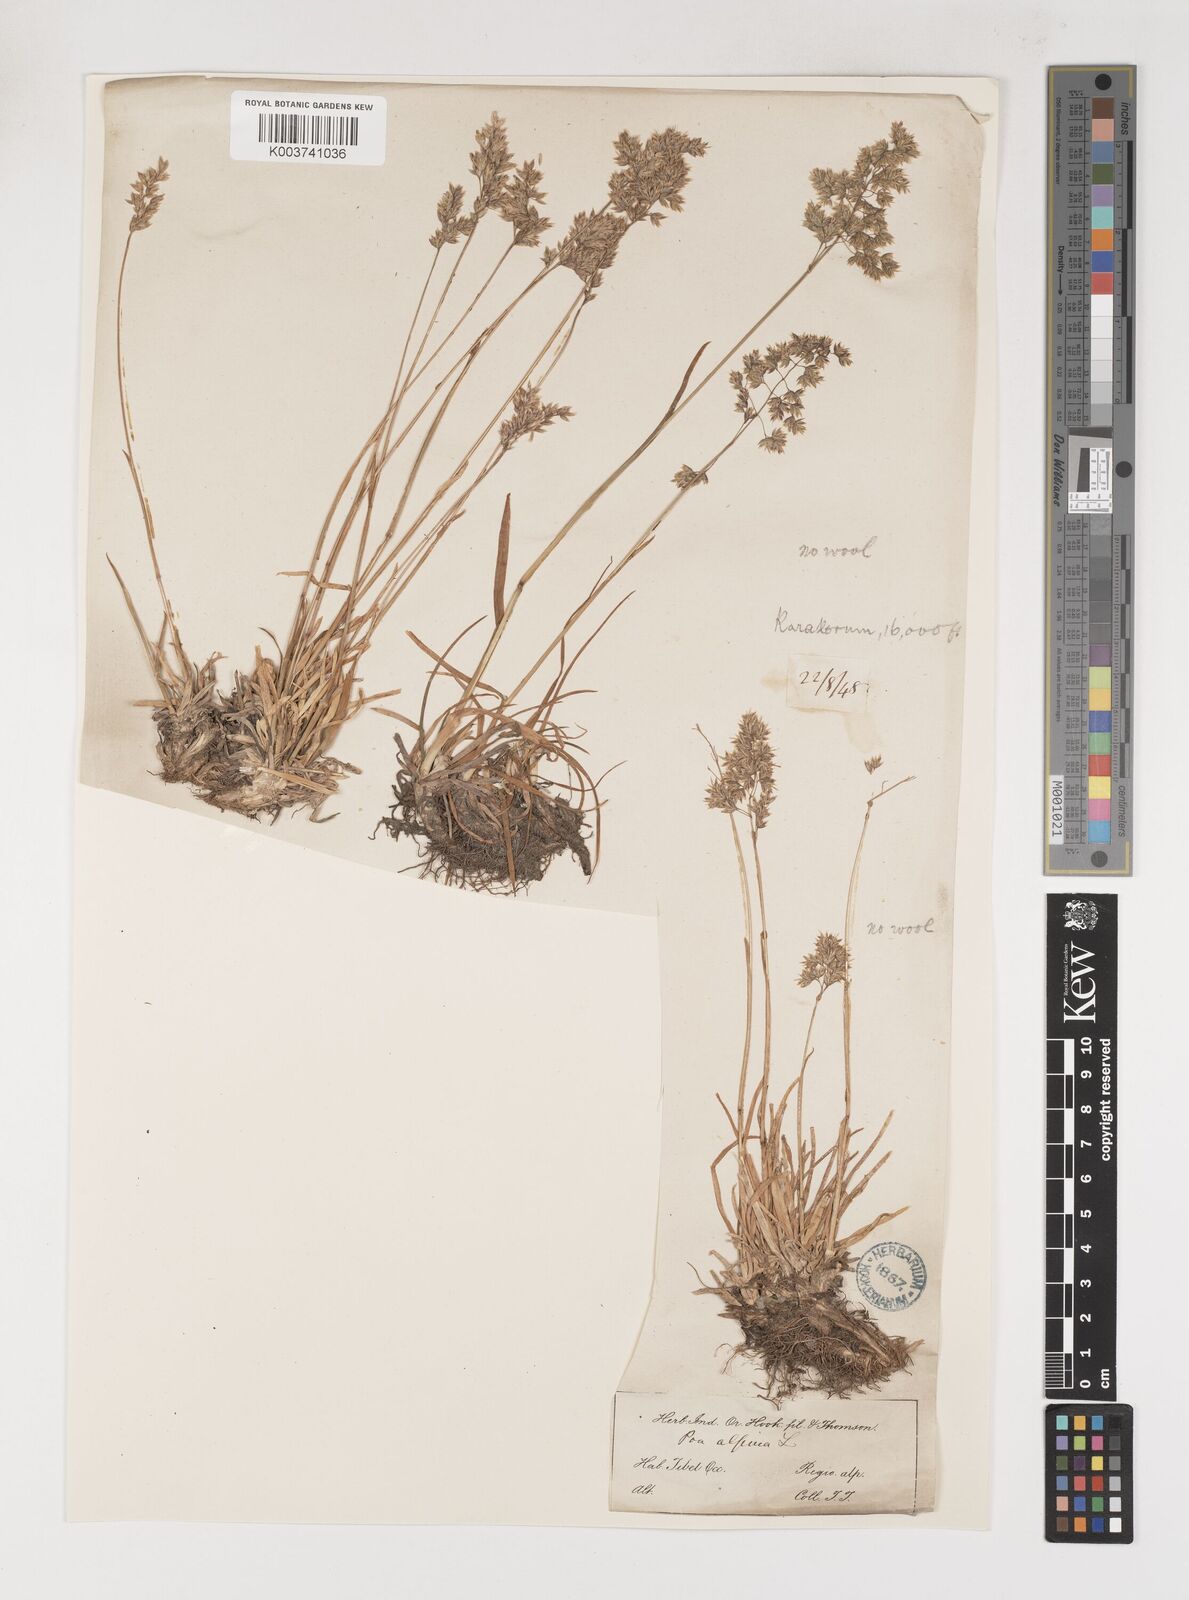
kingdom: Plantae
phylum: Tracheophyta
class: Liliopsida
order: Poales
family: Poaceae
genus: Poa
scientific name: Poa alpina
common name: Alpine bluegrass
